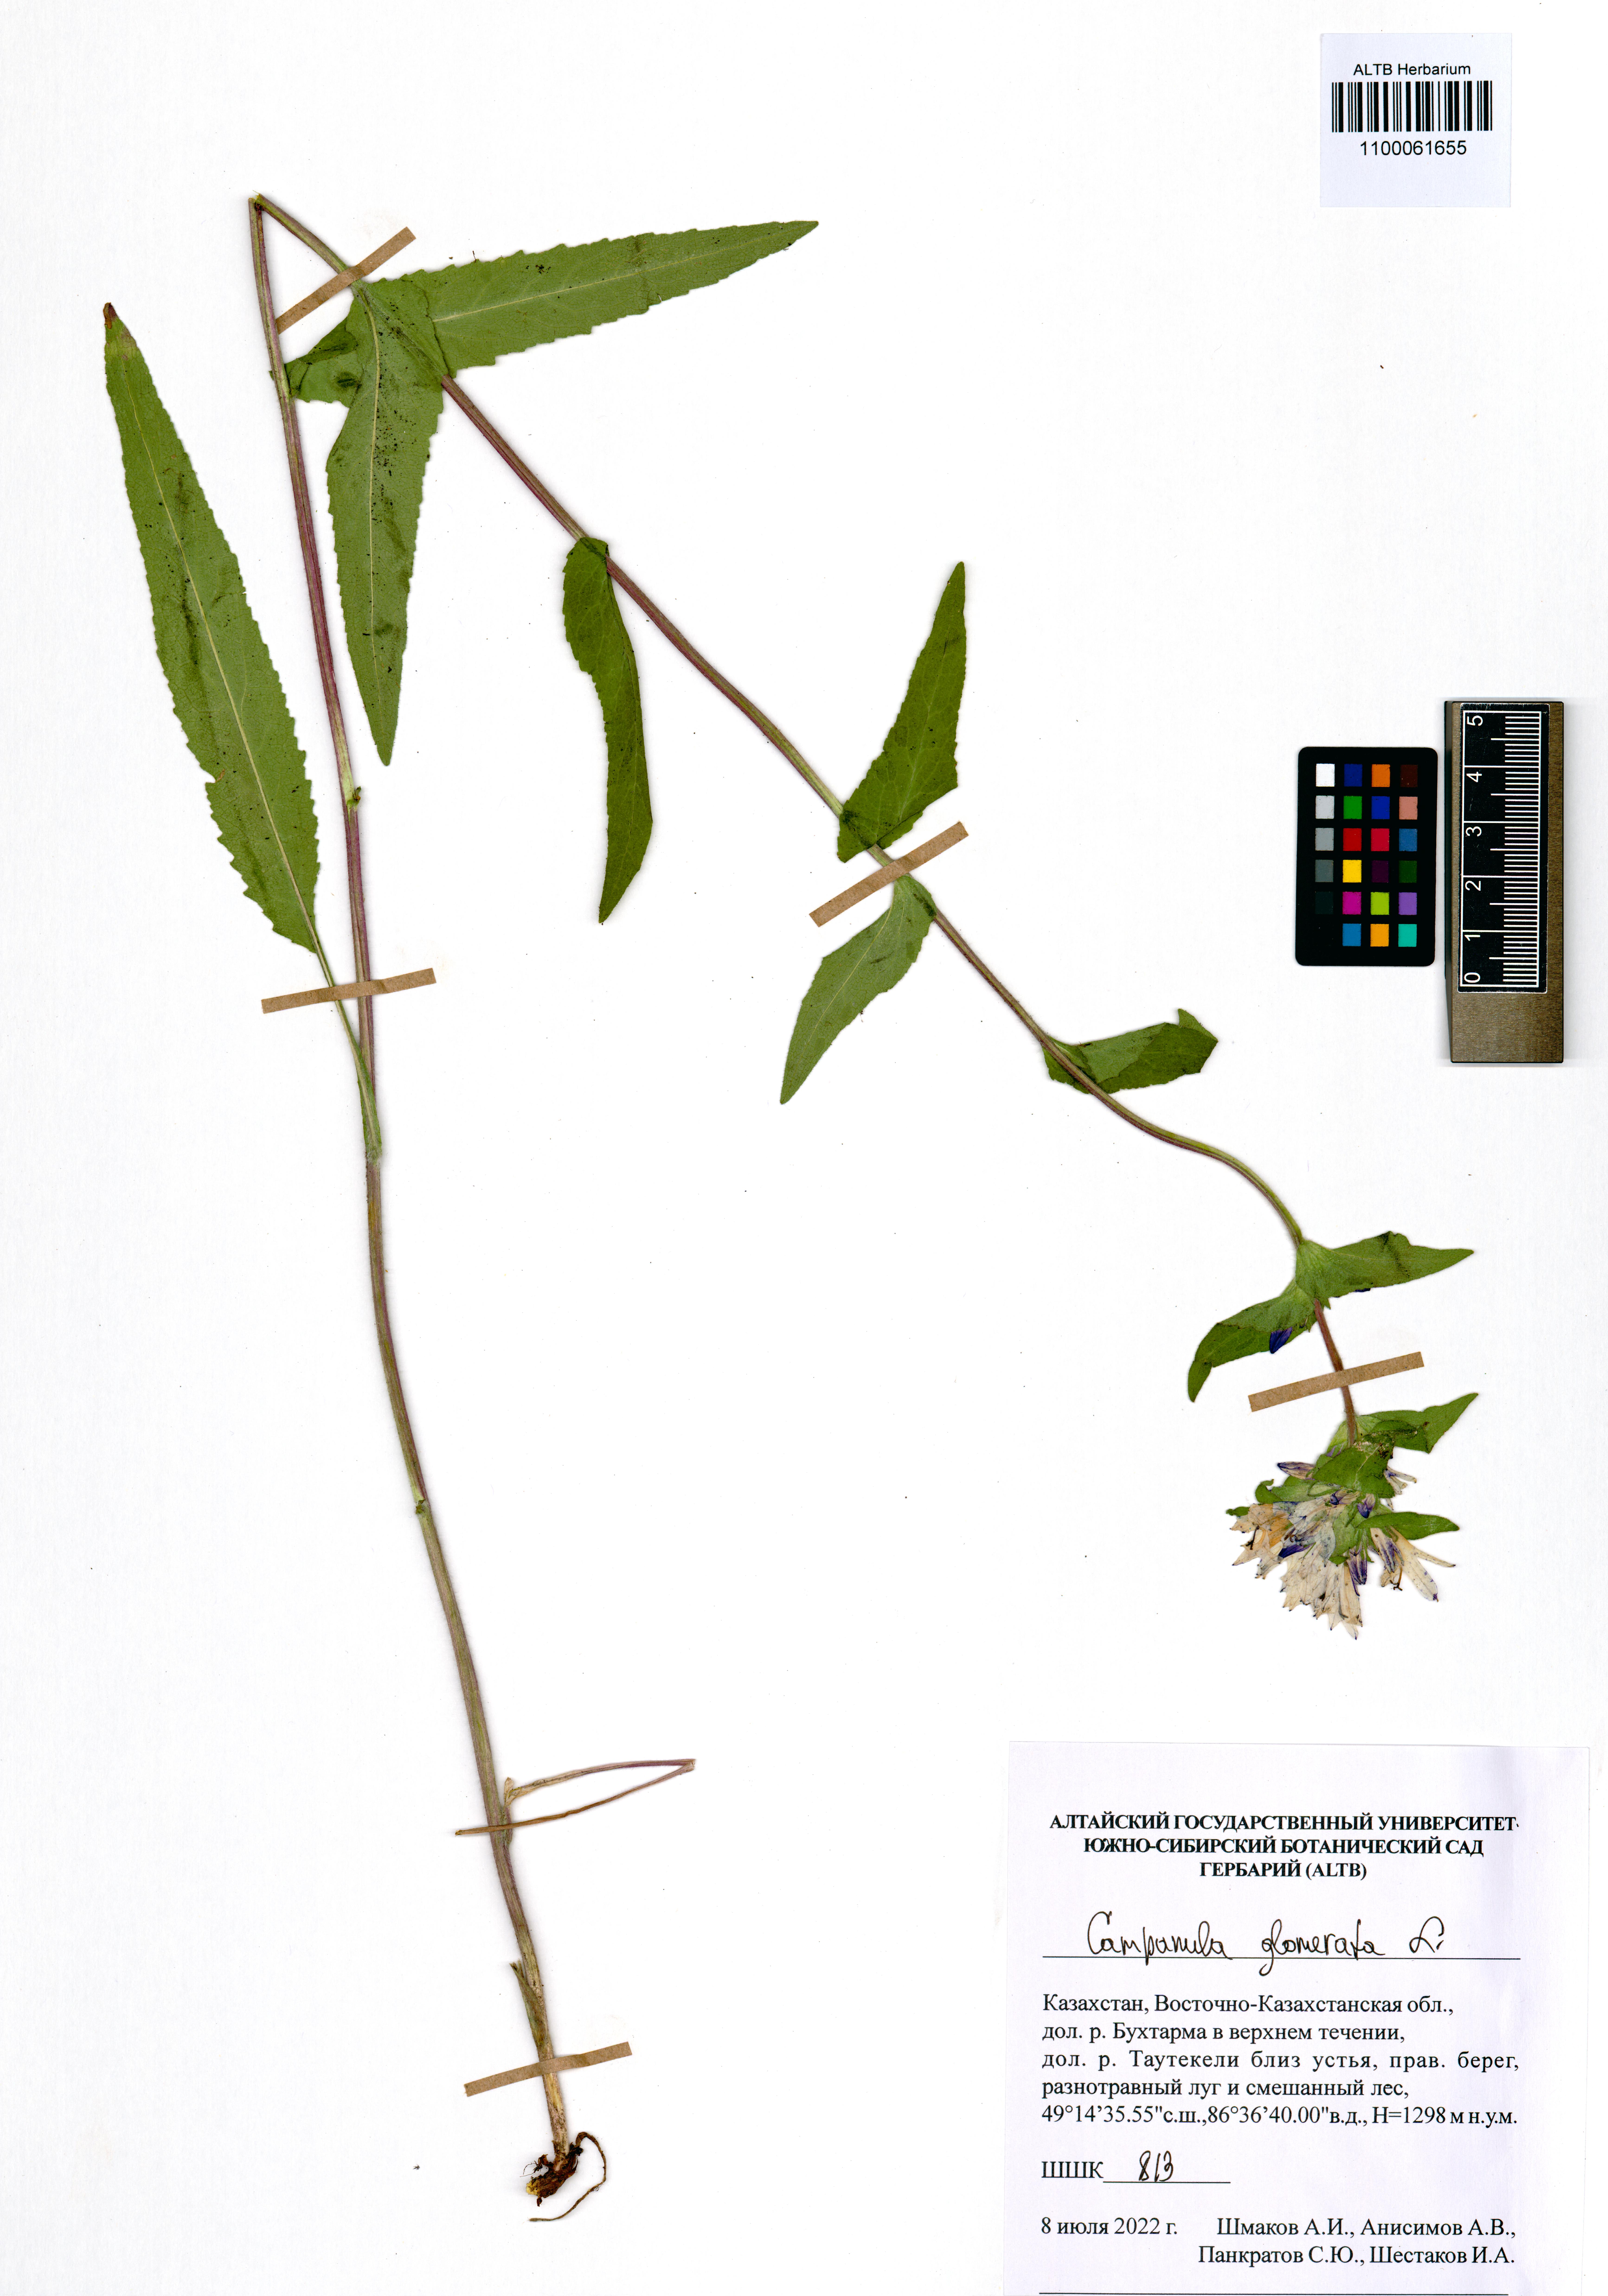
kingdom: Plantae
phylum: Tracheophyta
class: Magnoliopsida
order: Asterales
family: Campanulaceae
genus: Campanula
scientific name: Campanula glomerata
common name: Clustered bellflower
